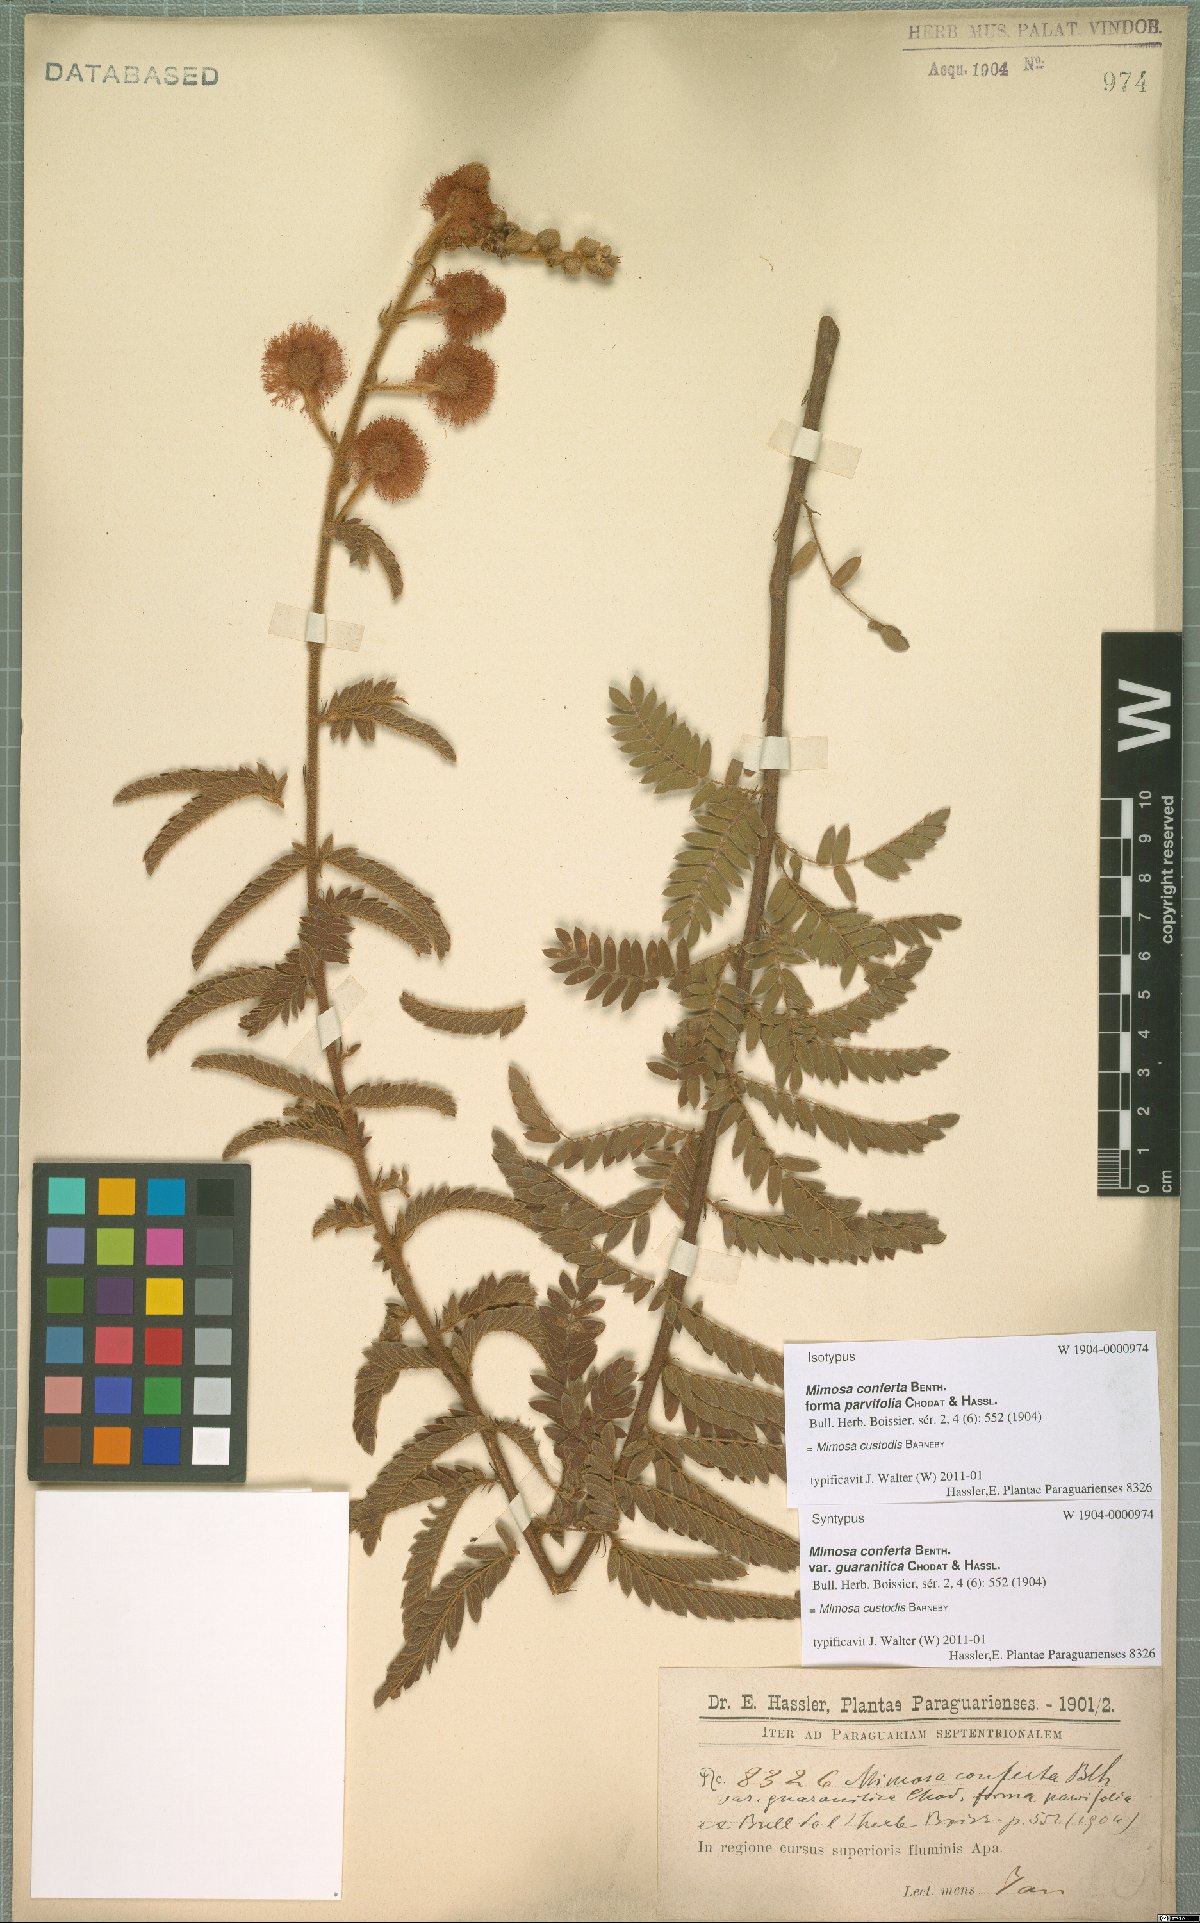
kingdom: Plantae
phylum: Tracheophyta
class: Magnoliopsida
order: Fabales
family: Fabaceae
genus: Mimosa
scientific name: Mimosa custodis
